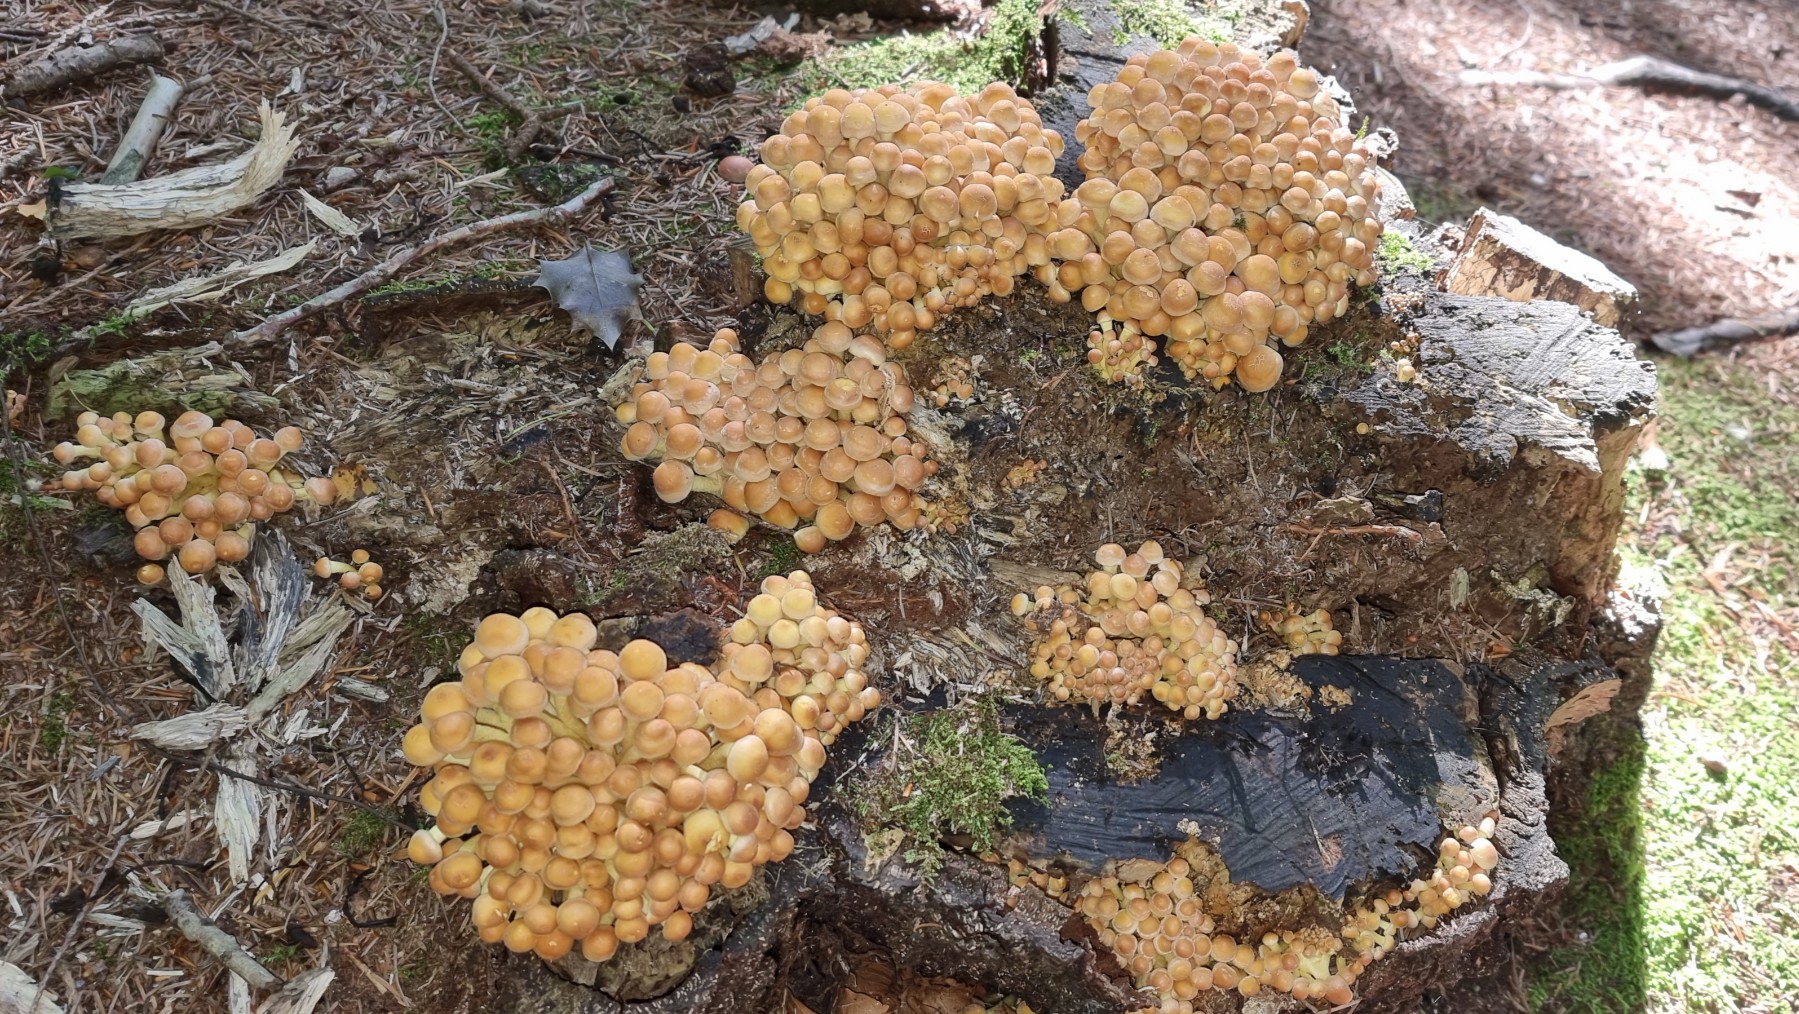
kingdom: Fungi
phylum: Basidiomycota
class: Agaricomycetes
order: Agaricales
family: Strophariaceae
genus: Hypholoma
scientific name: Hypholoma fasciculare
